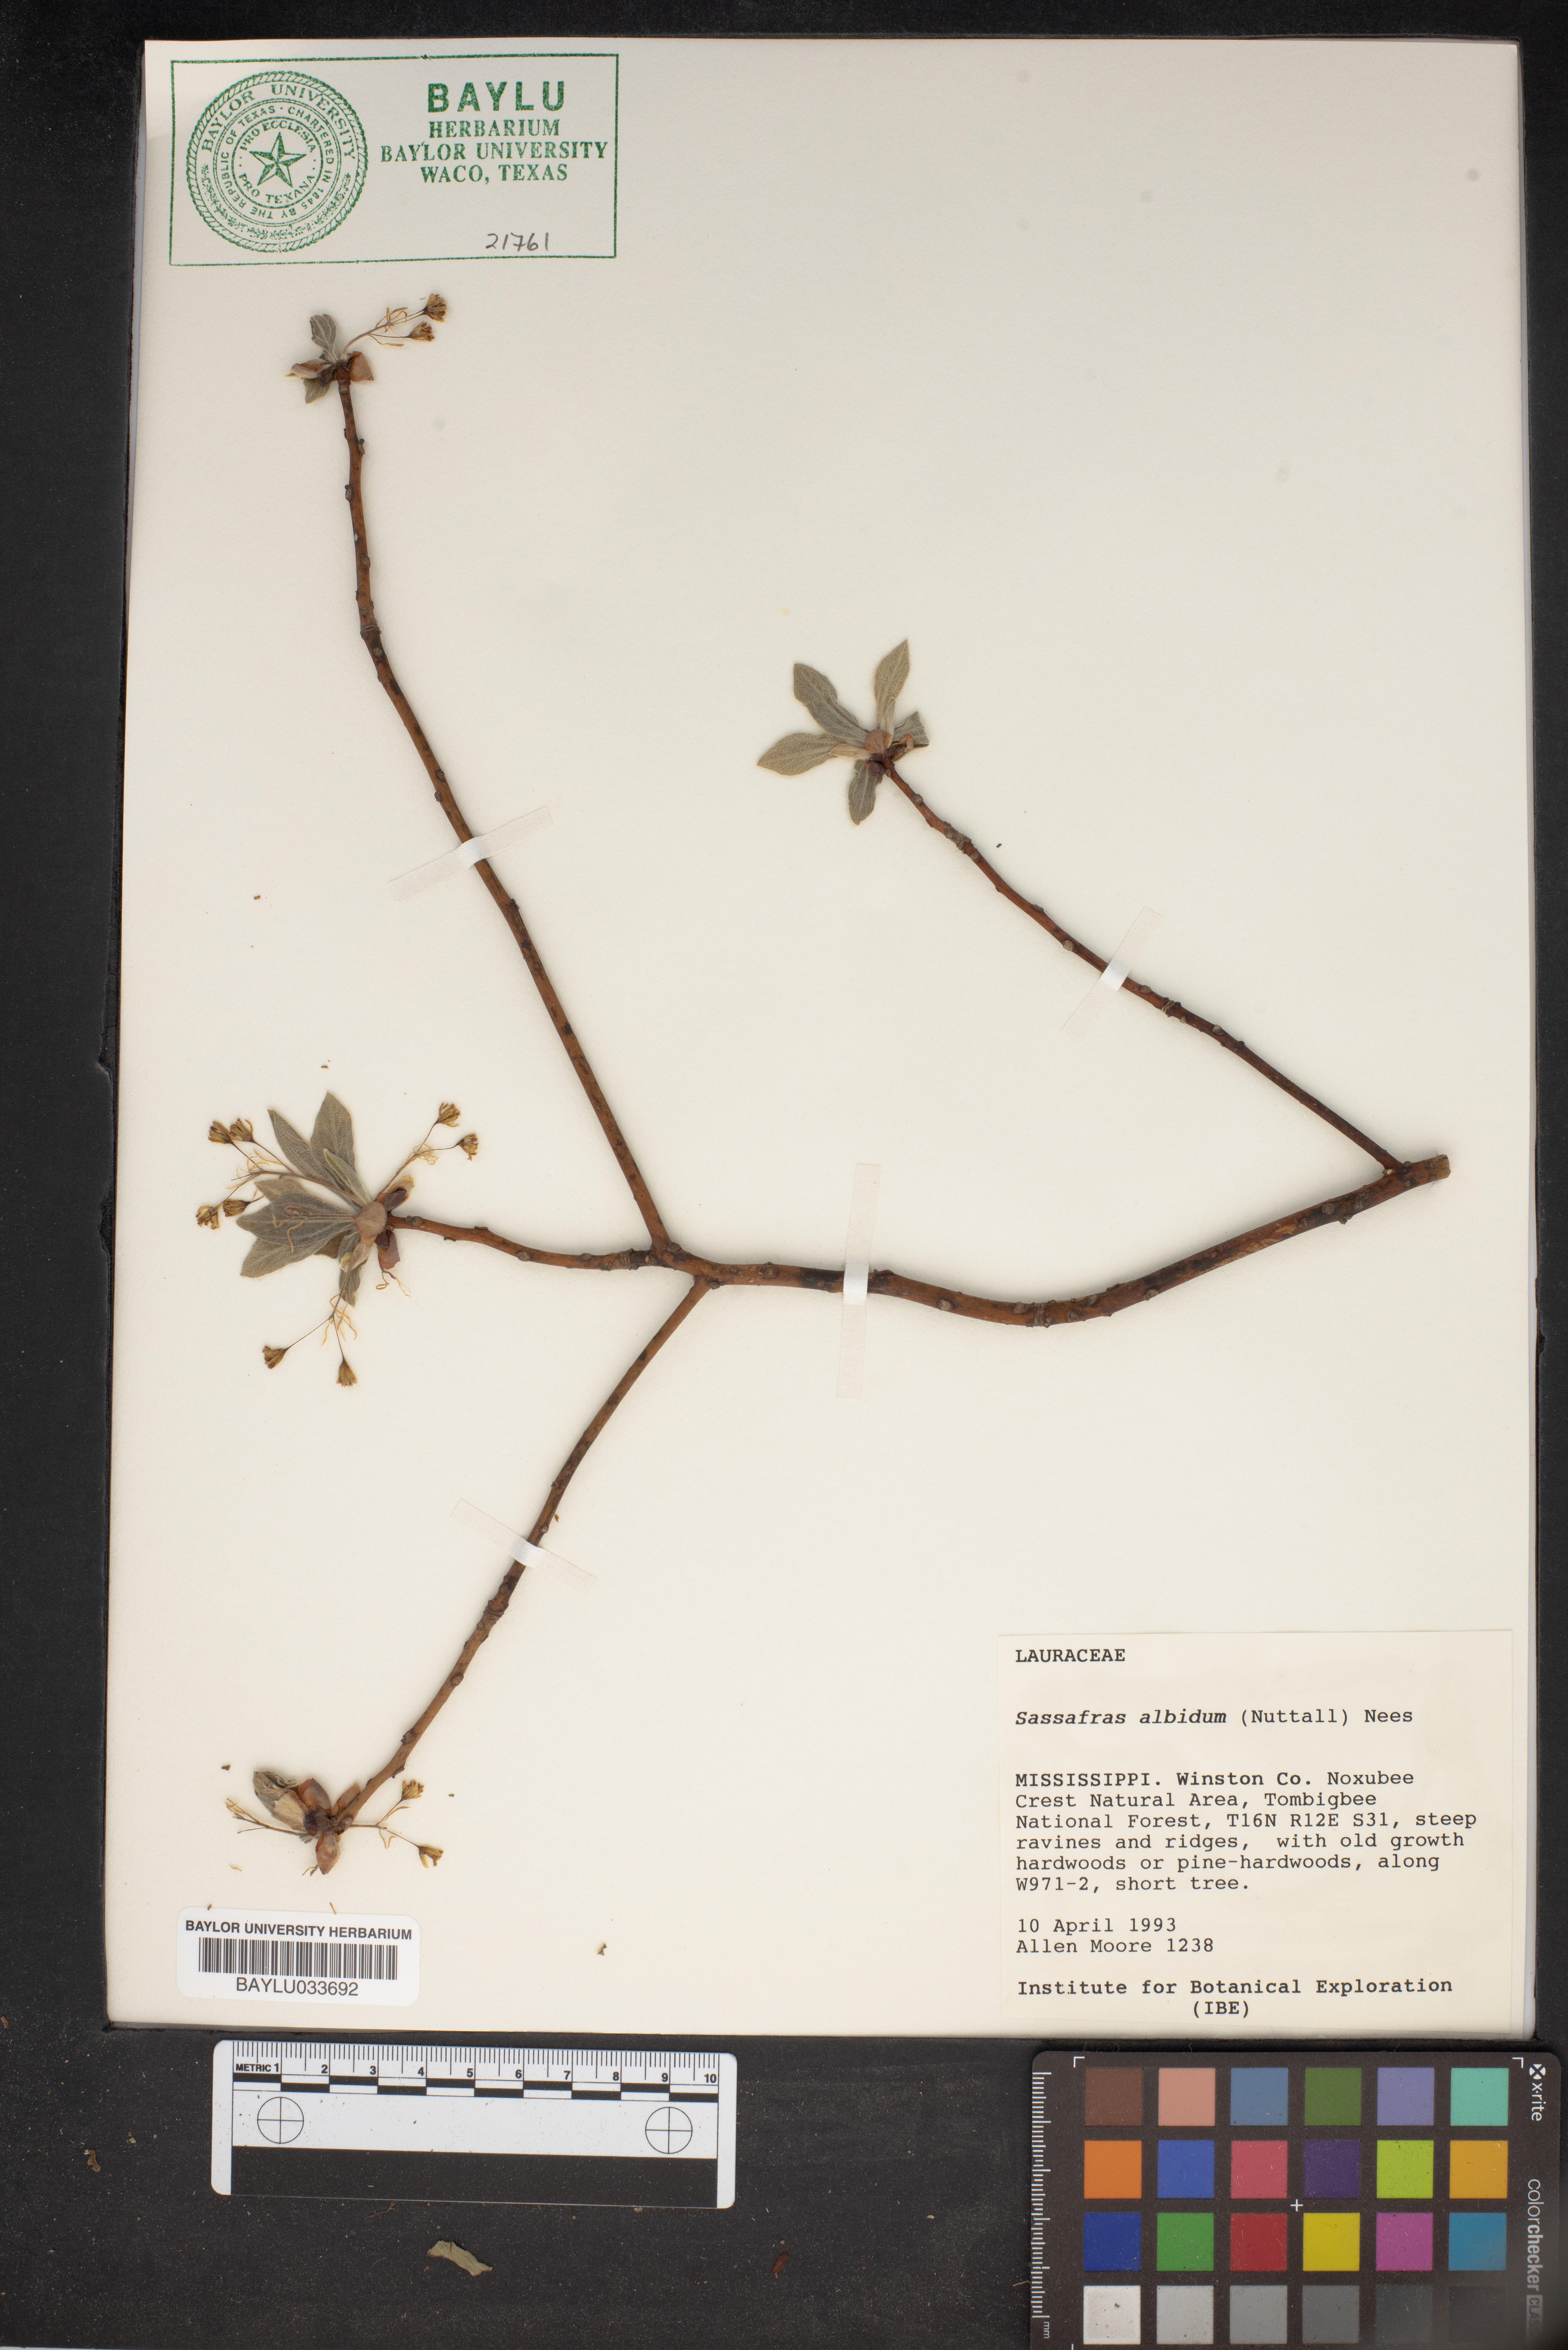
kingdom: Plantae
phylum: Tracheophyta
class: Magnoliopsida
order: Laurales
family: Lauraceae
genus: Sassafras
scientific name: Sassafras albidum
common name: Sassafras
